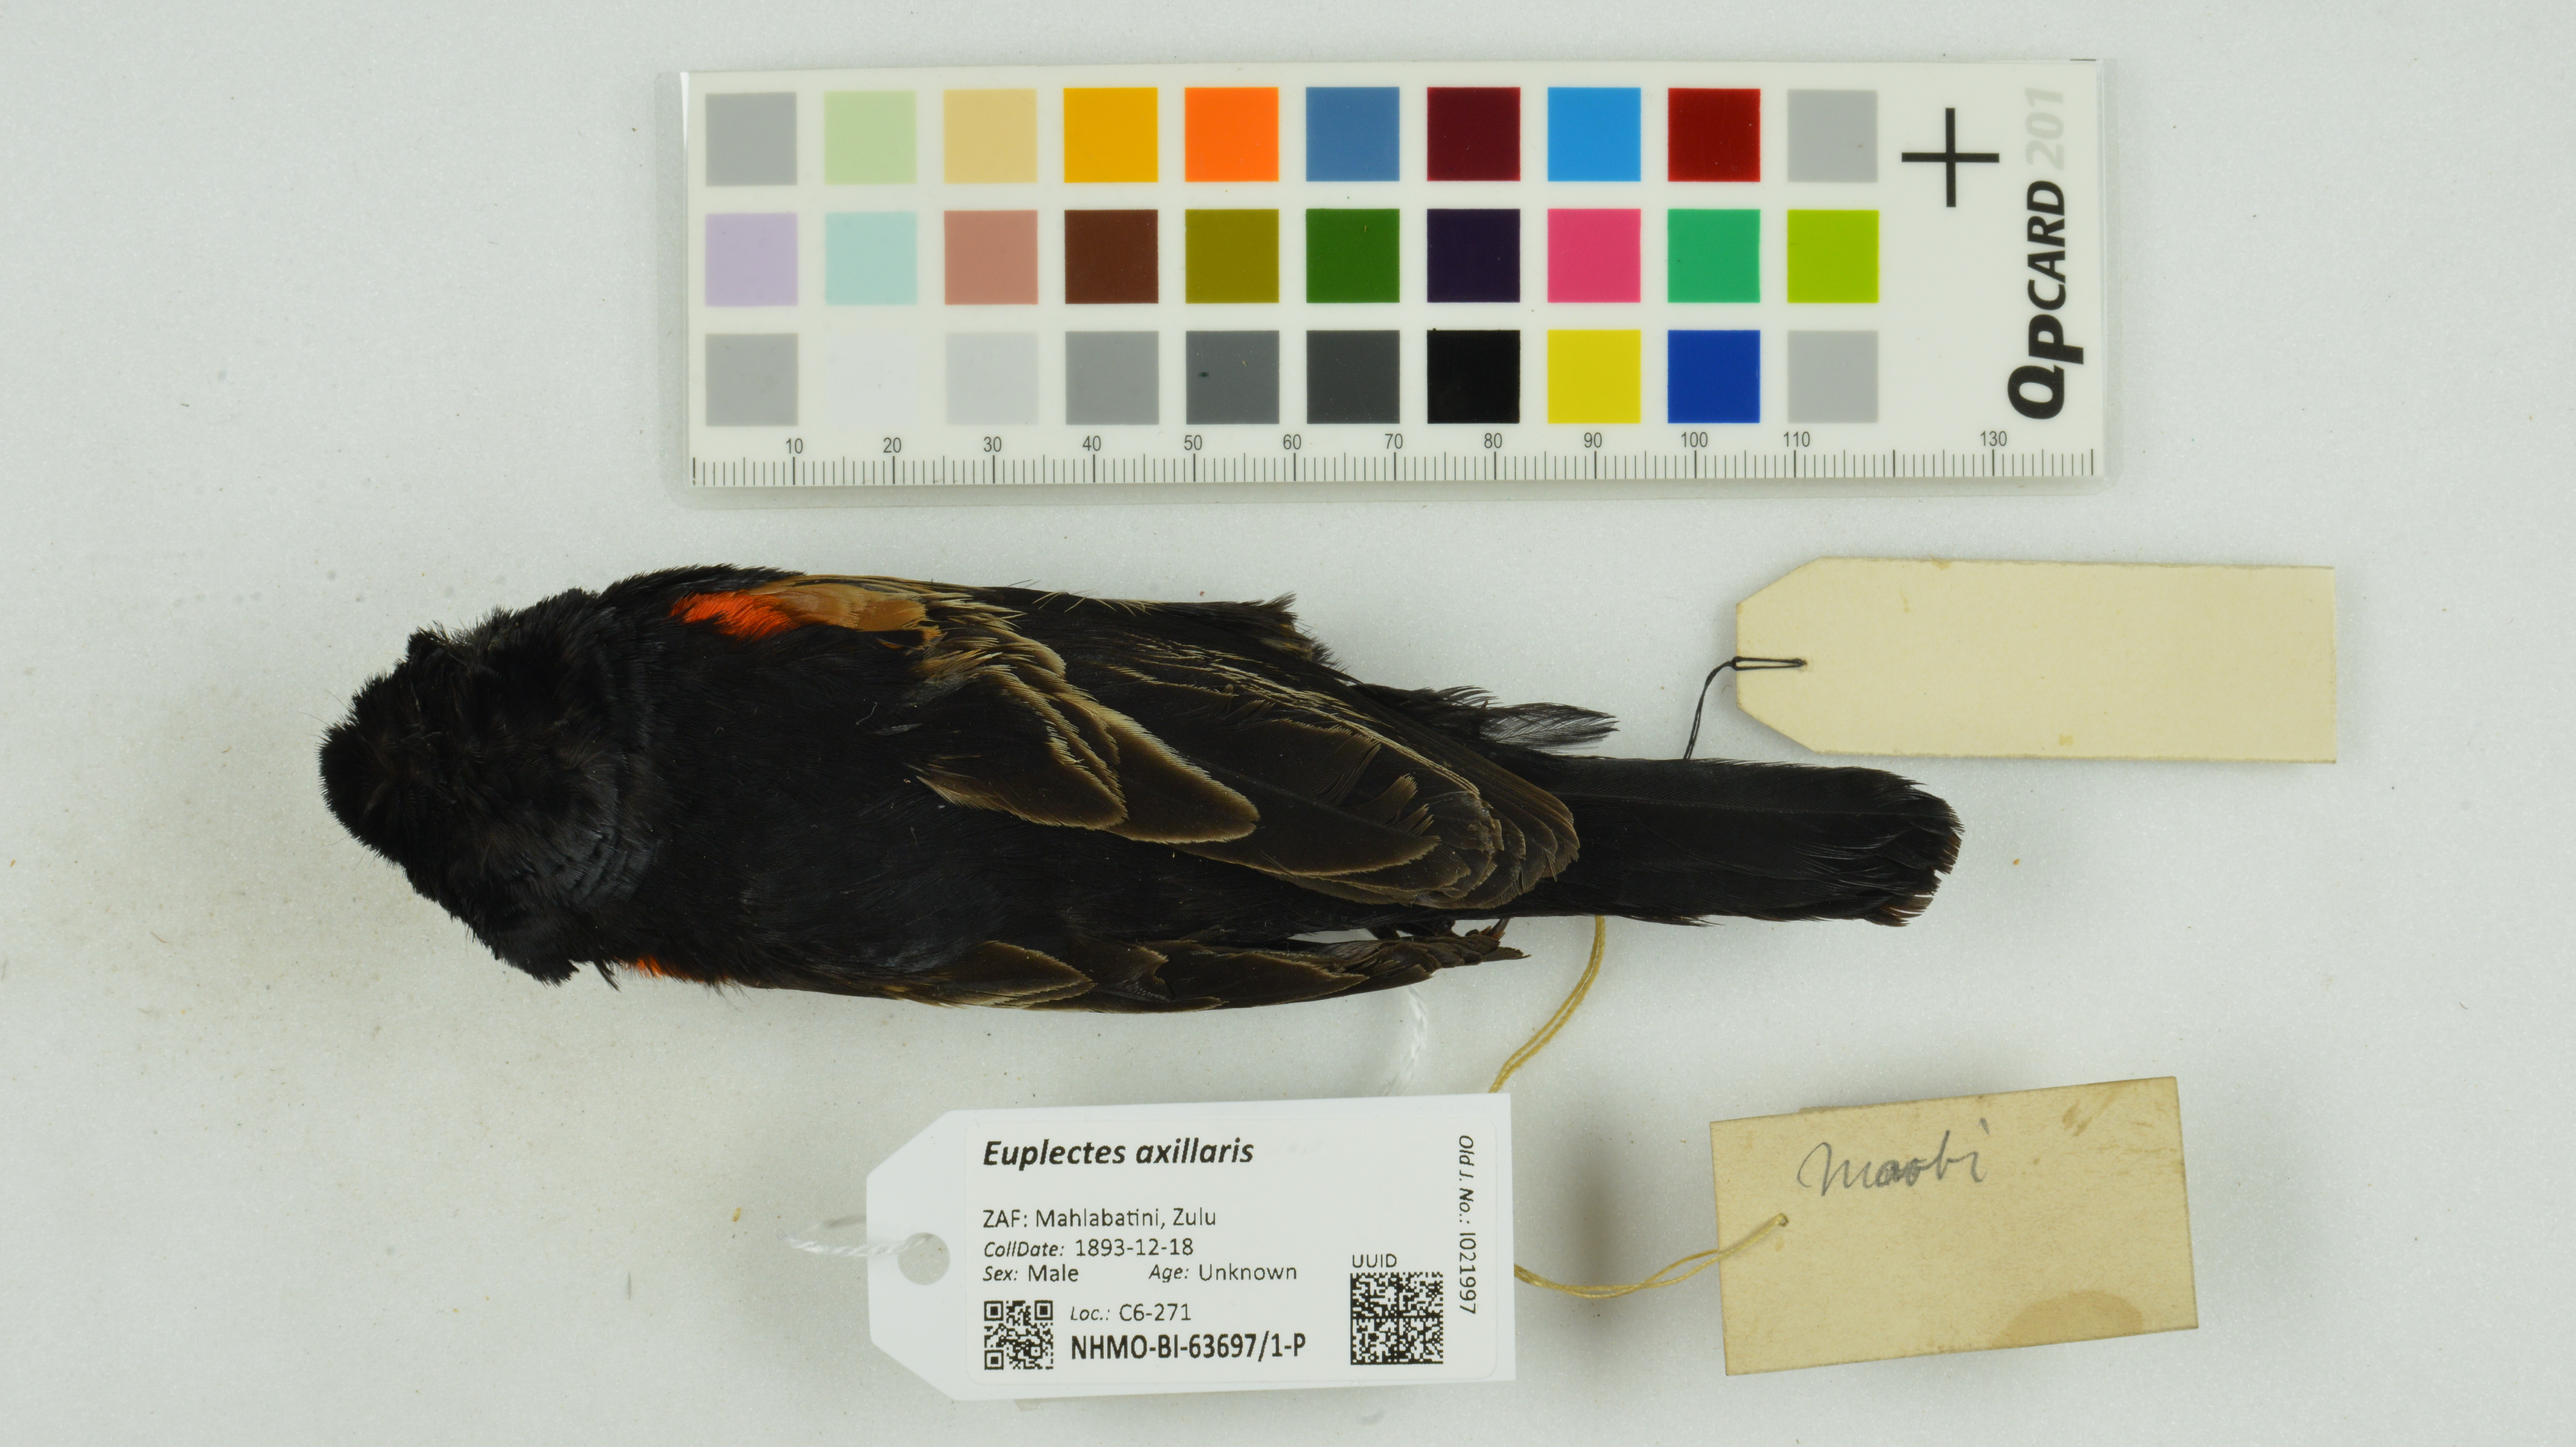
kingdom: Animalia
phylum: Chordata
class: Aves
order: Passeriformes
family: Ploceidae
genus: Euplectes
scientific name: Euplectes axillaris
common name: Fan-tailed widowbird
